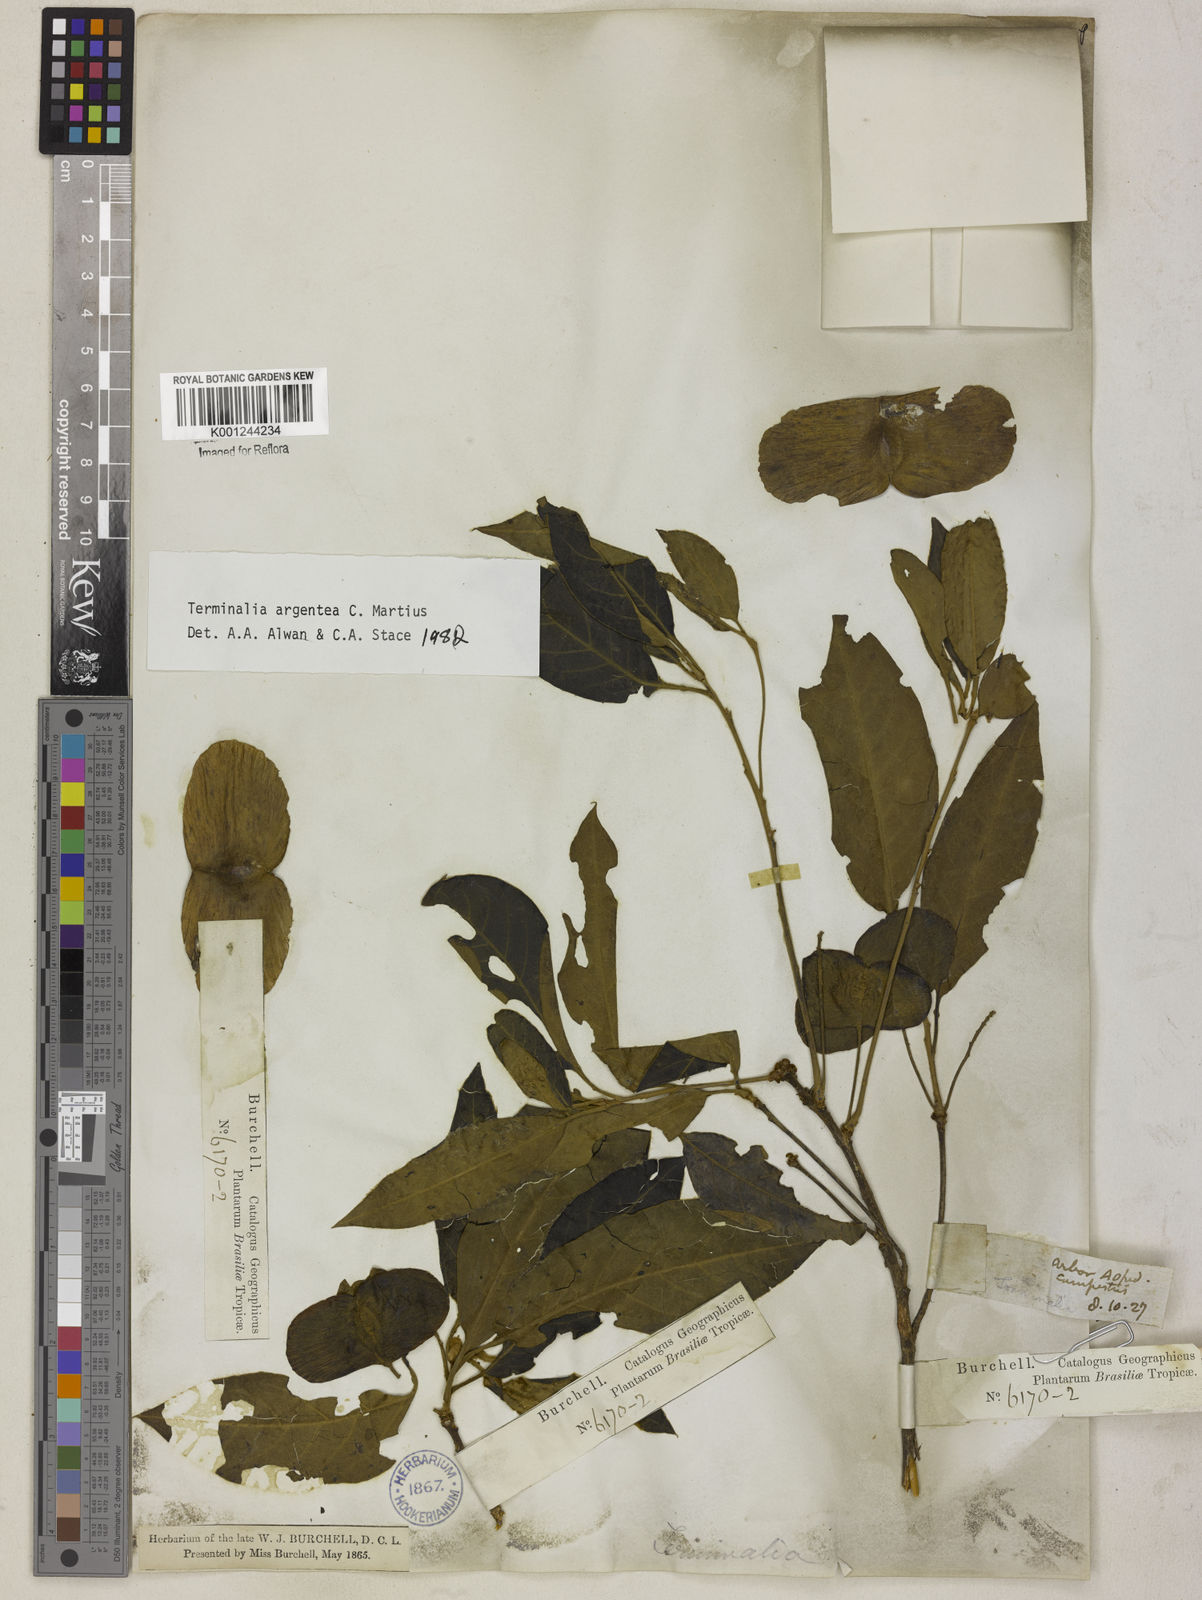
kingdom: Plantae
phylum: Tracheophyta
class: Magnoliopsida
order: Myrtales
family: Combretaceae
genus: Terminalia
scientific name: Terminalia argentea
